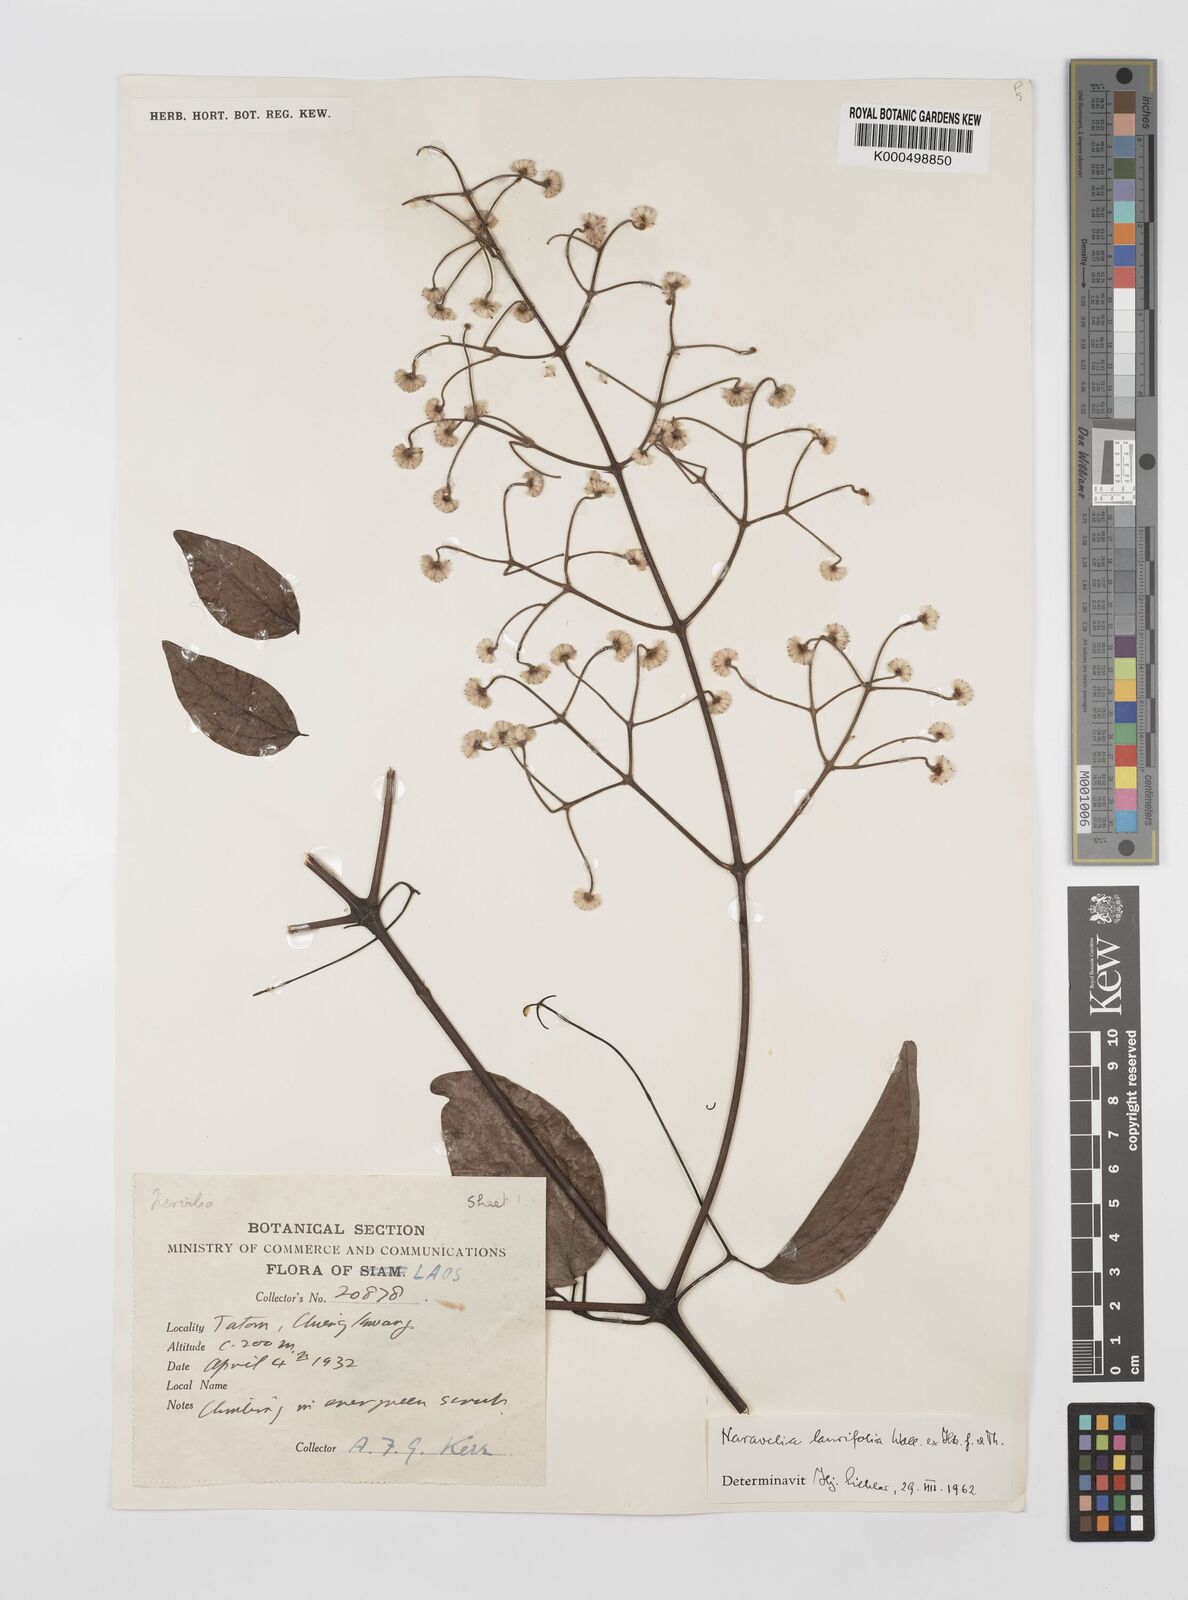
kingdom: Plantae
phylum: Tracheophyta
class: Magnoliopsida
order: Ranunculales
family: Ranunculaceae
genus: Clematis
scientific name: Clematis horripilata
